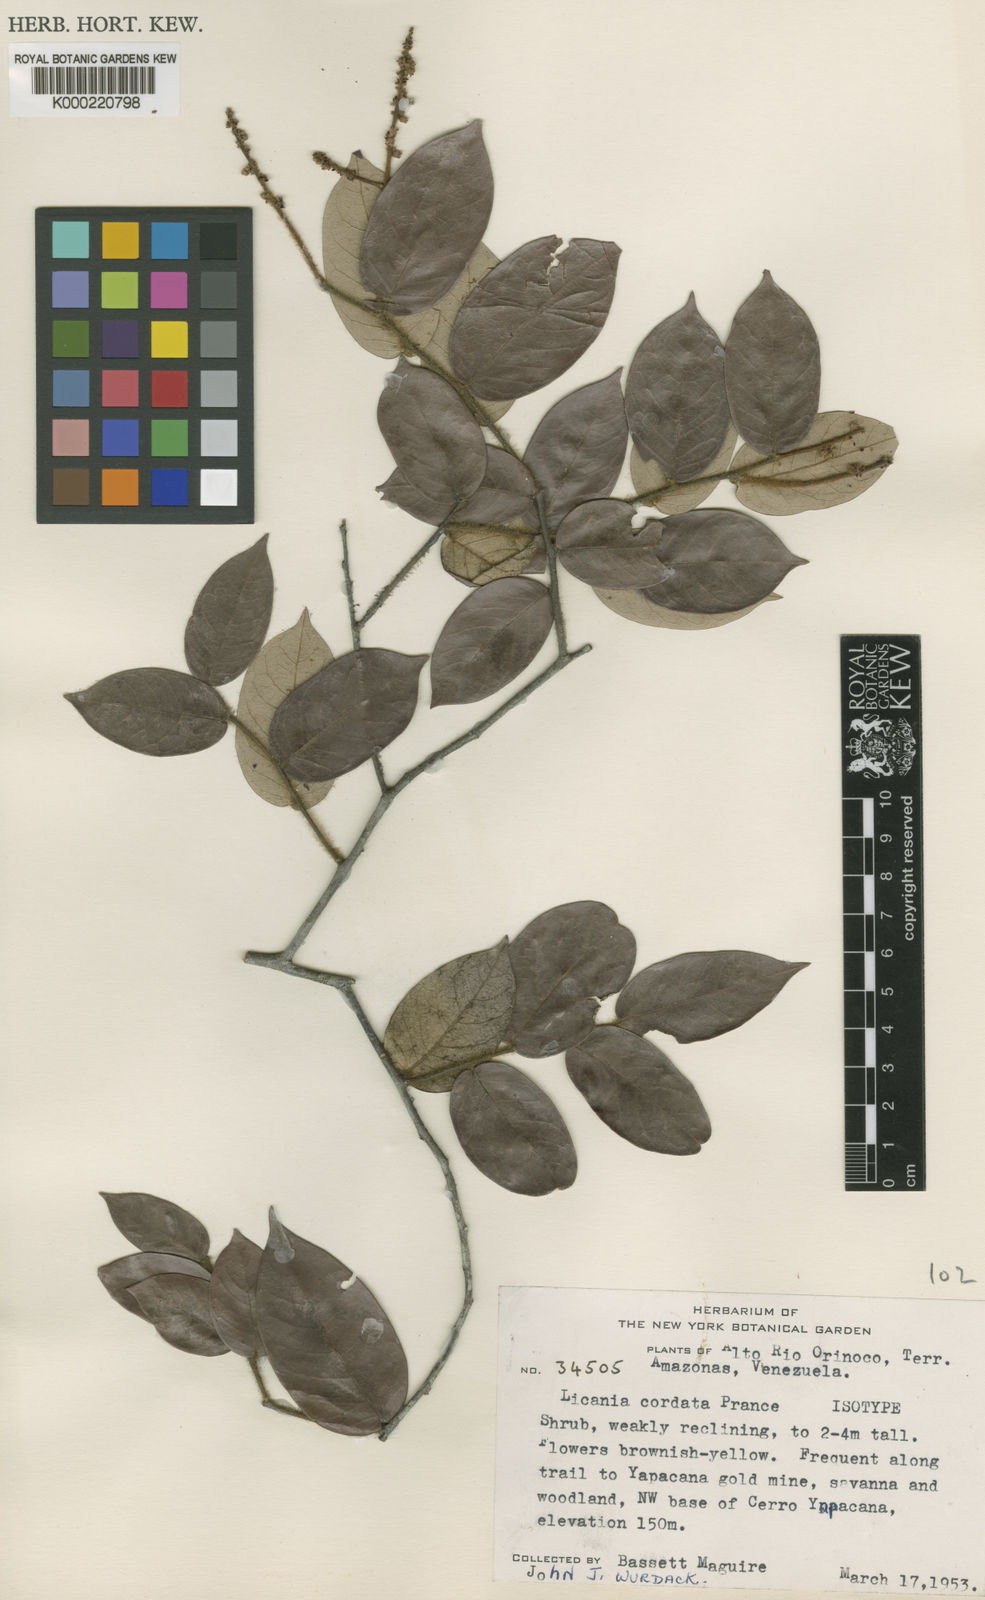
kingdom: Plantae
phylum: Tracheophyta
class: Magnoliopsida
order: Malpighiales
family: Chrysobalanaceae
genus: Licania
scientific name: Licania cordata
